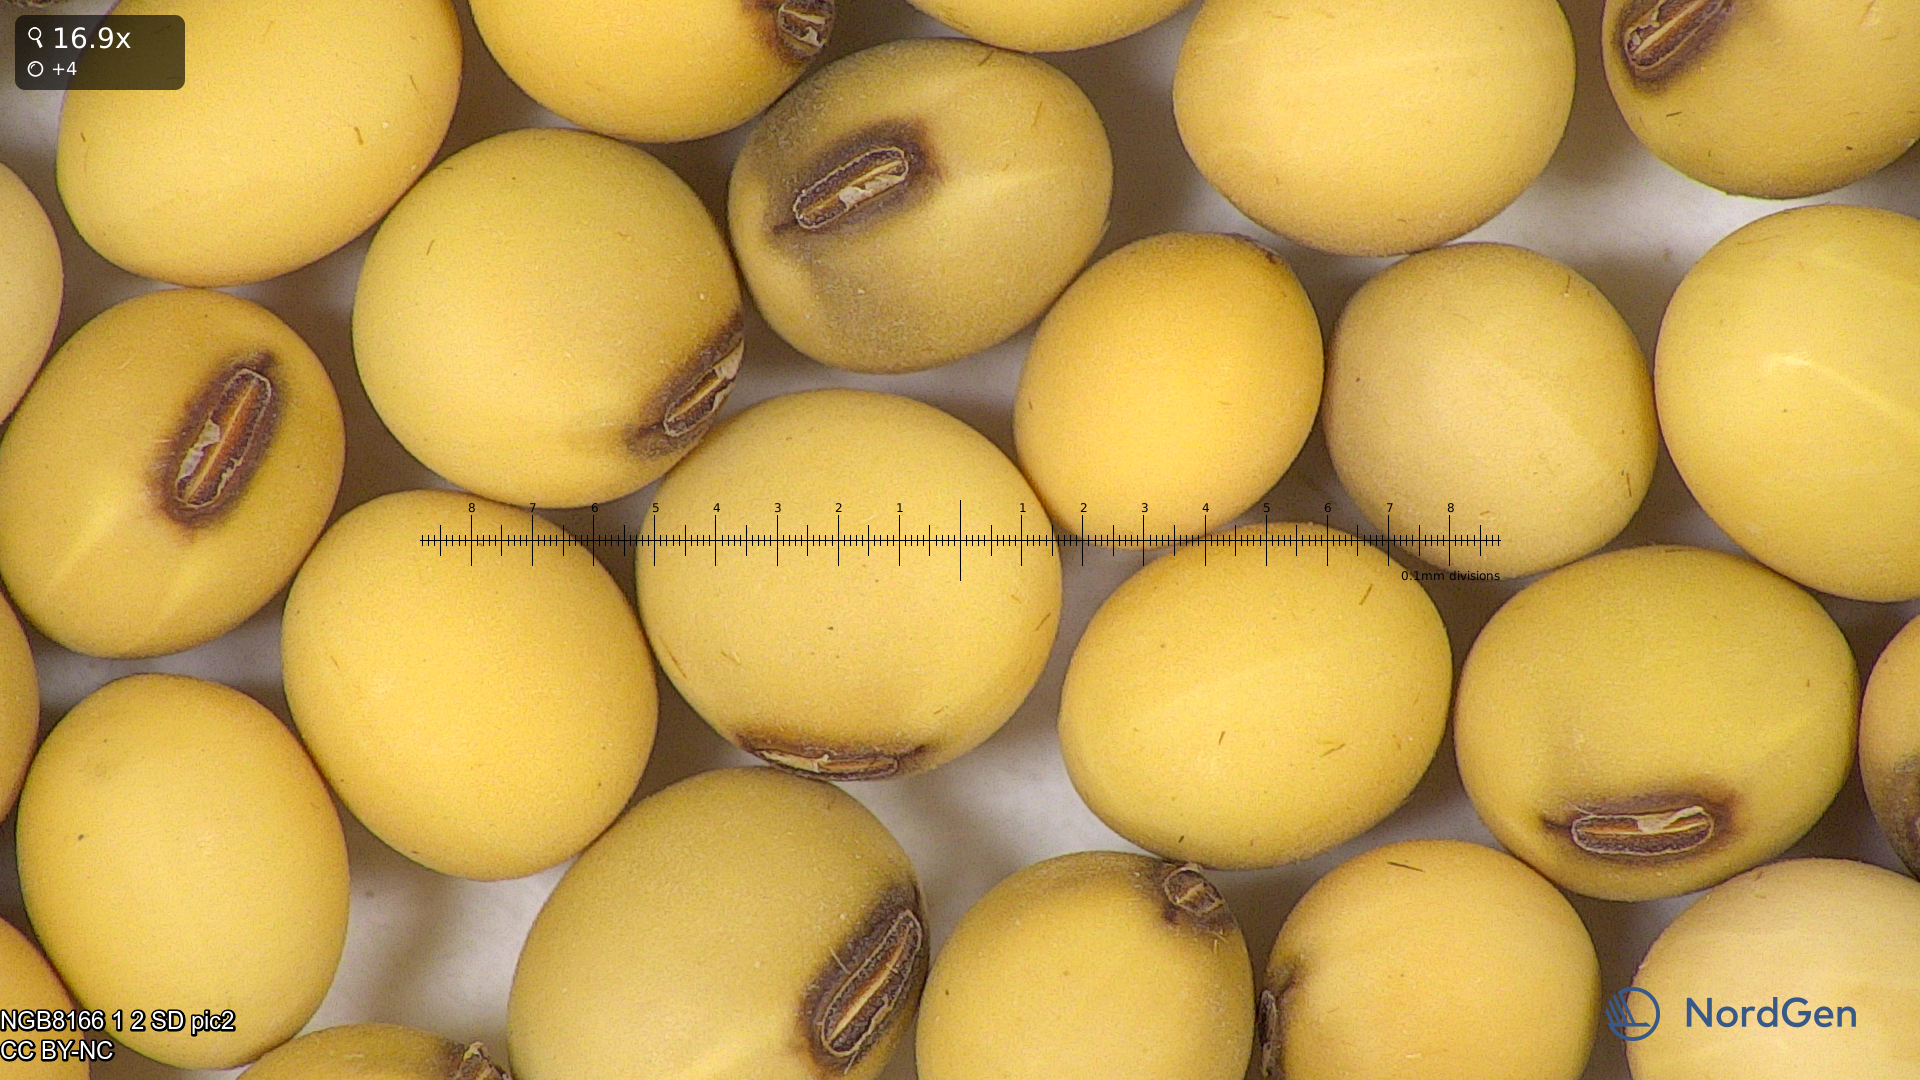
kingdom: Plantae
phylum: Tracheophyta
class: Magnoliopsida
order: Fabales
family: Fabaceae
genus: Glycine
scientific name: Glycine max
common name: Soya-bean
